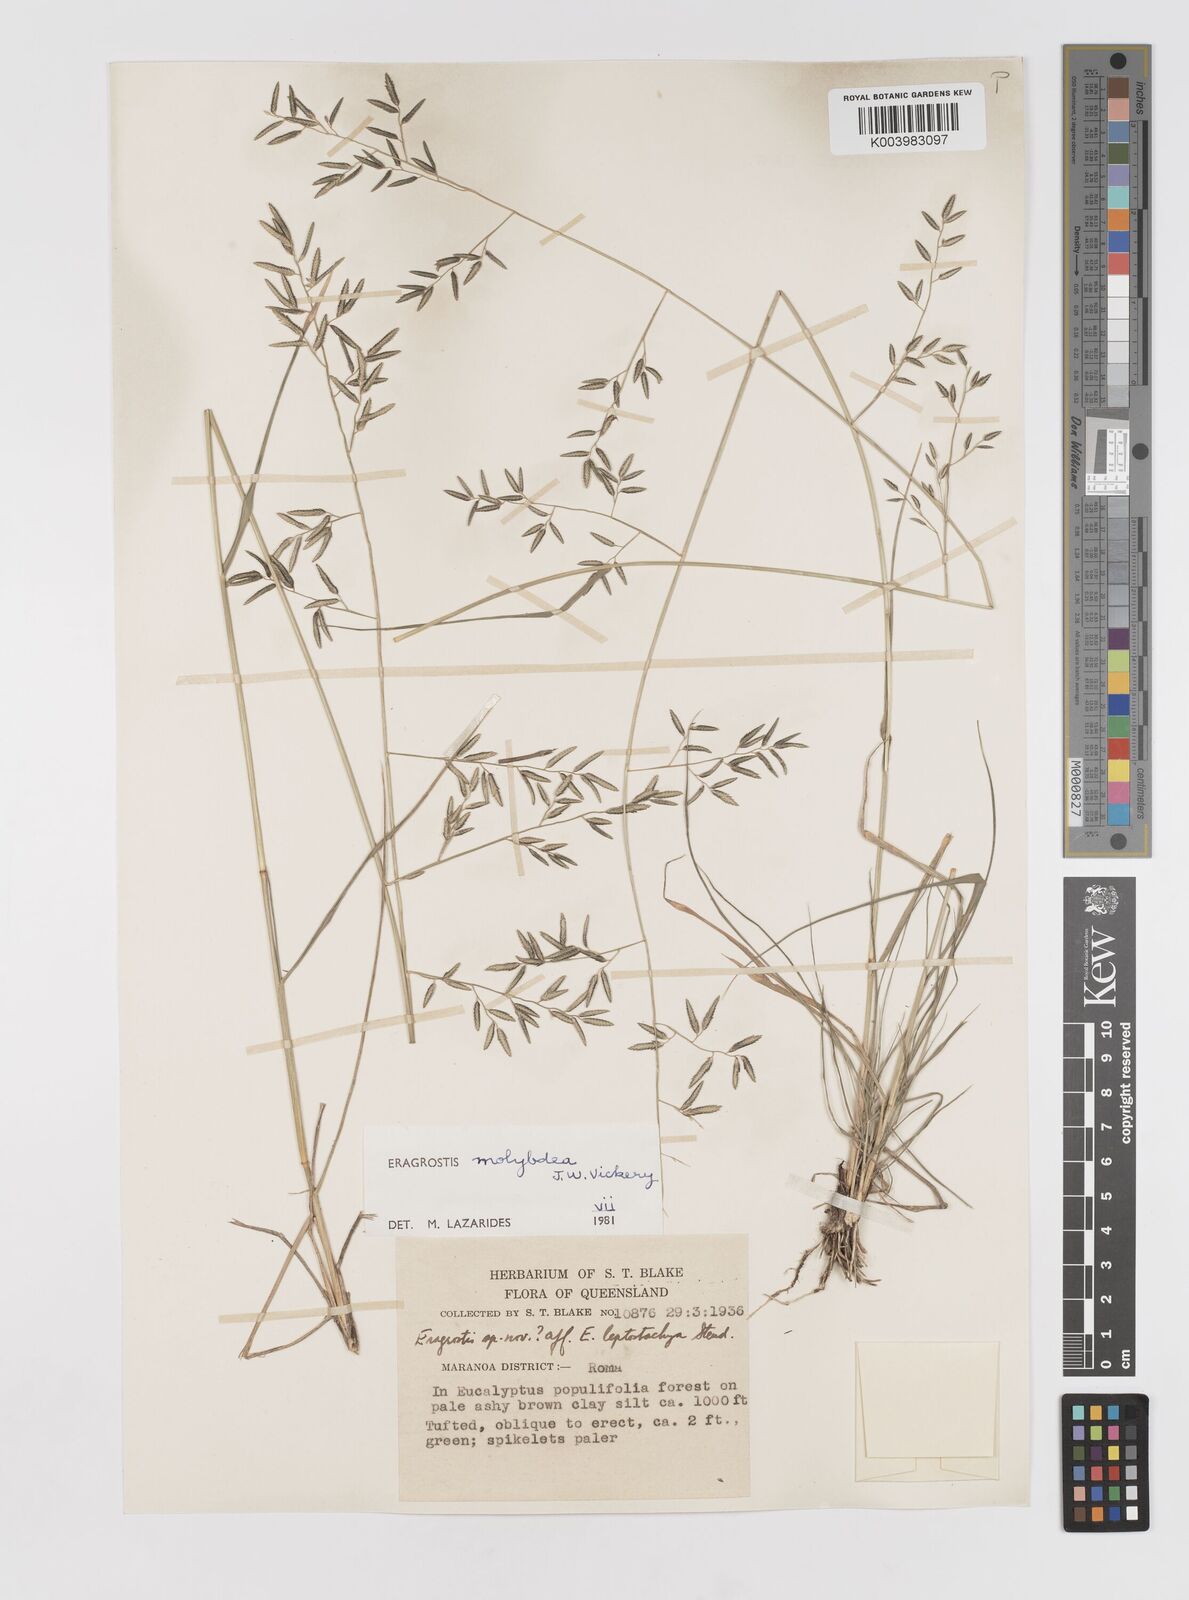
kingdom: Plantae
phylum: Tracheophyta
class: Liliopsida
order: Poales
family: Poaceae
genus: Eragrostis
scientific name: Eragrostis leptostachya
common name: Australian lovegrass
